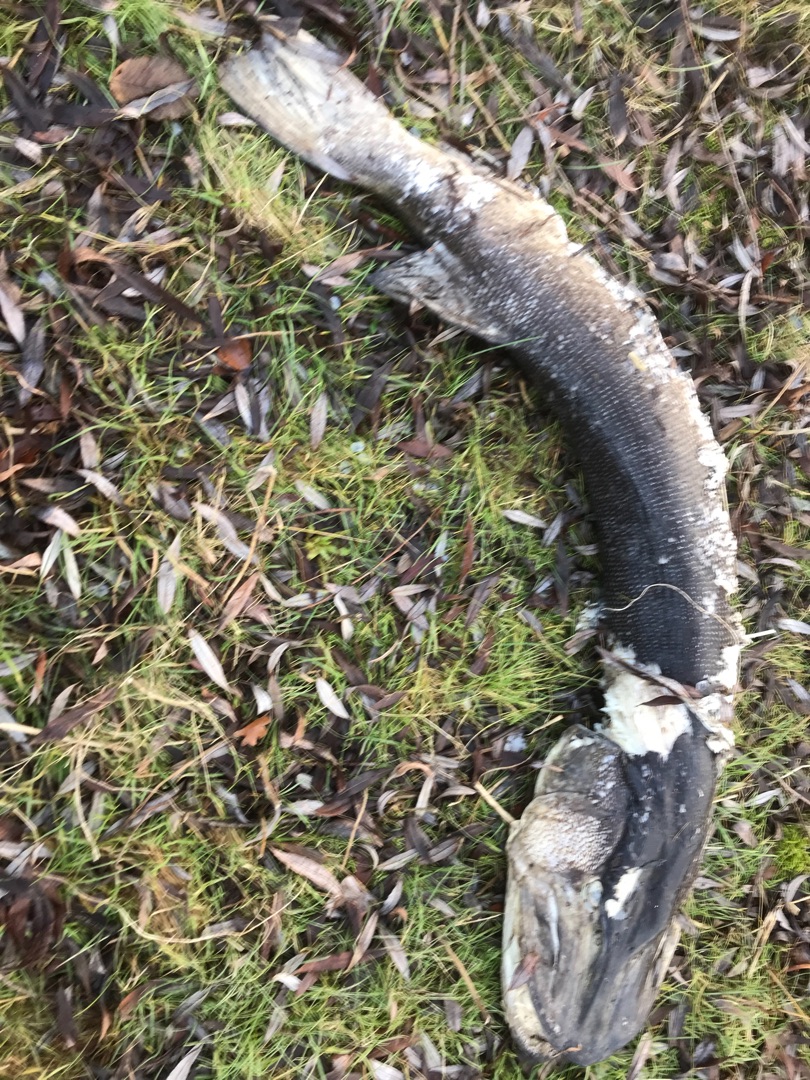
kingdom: Animalia
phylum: Chordata
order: Esociformes
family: Esocidae
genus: Esox
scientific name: Esox lucius
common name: Gedde
